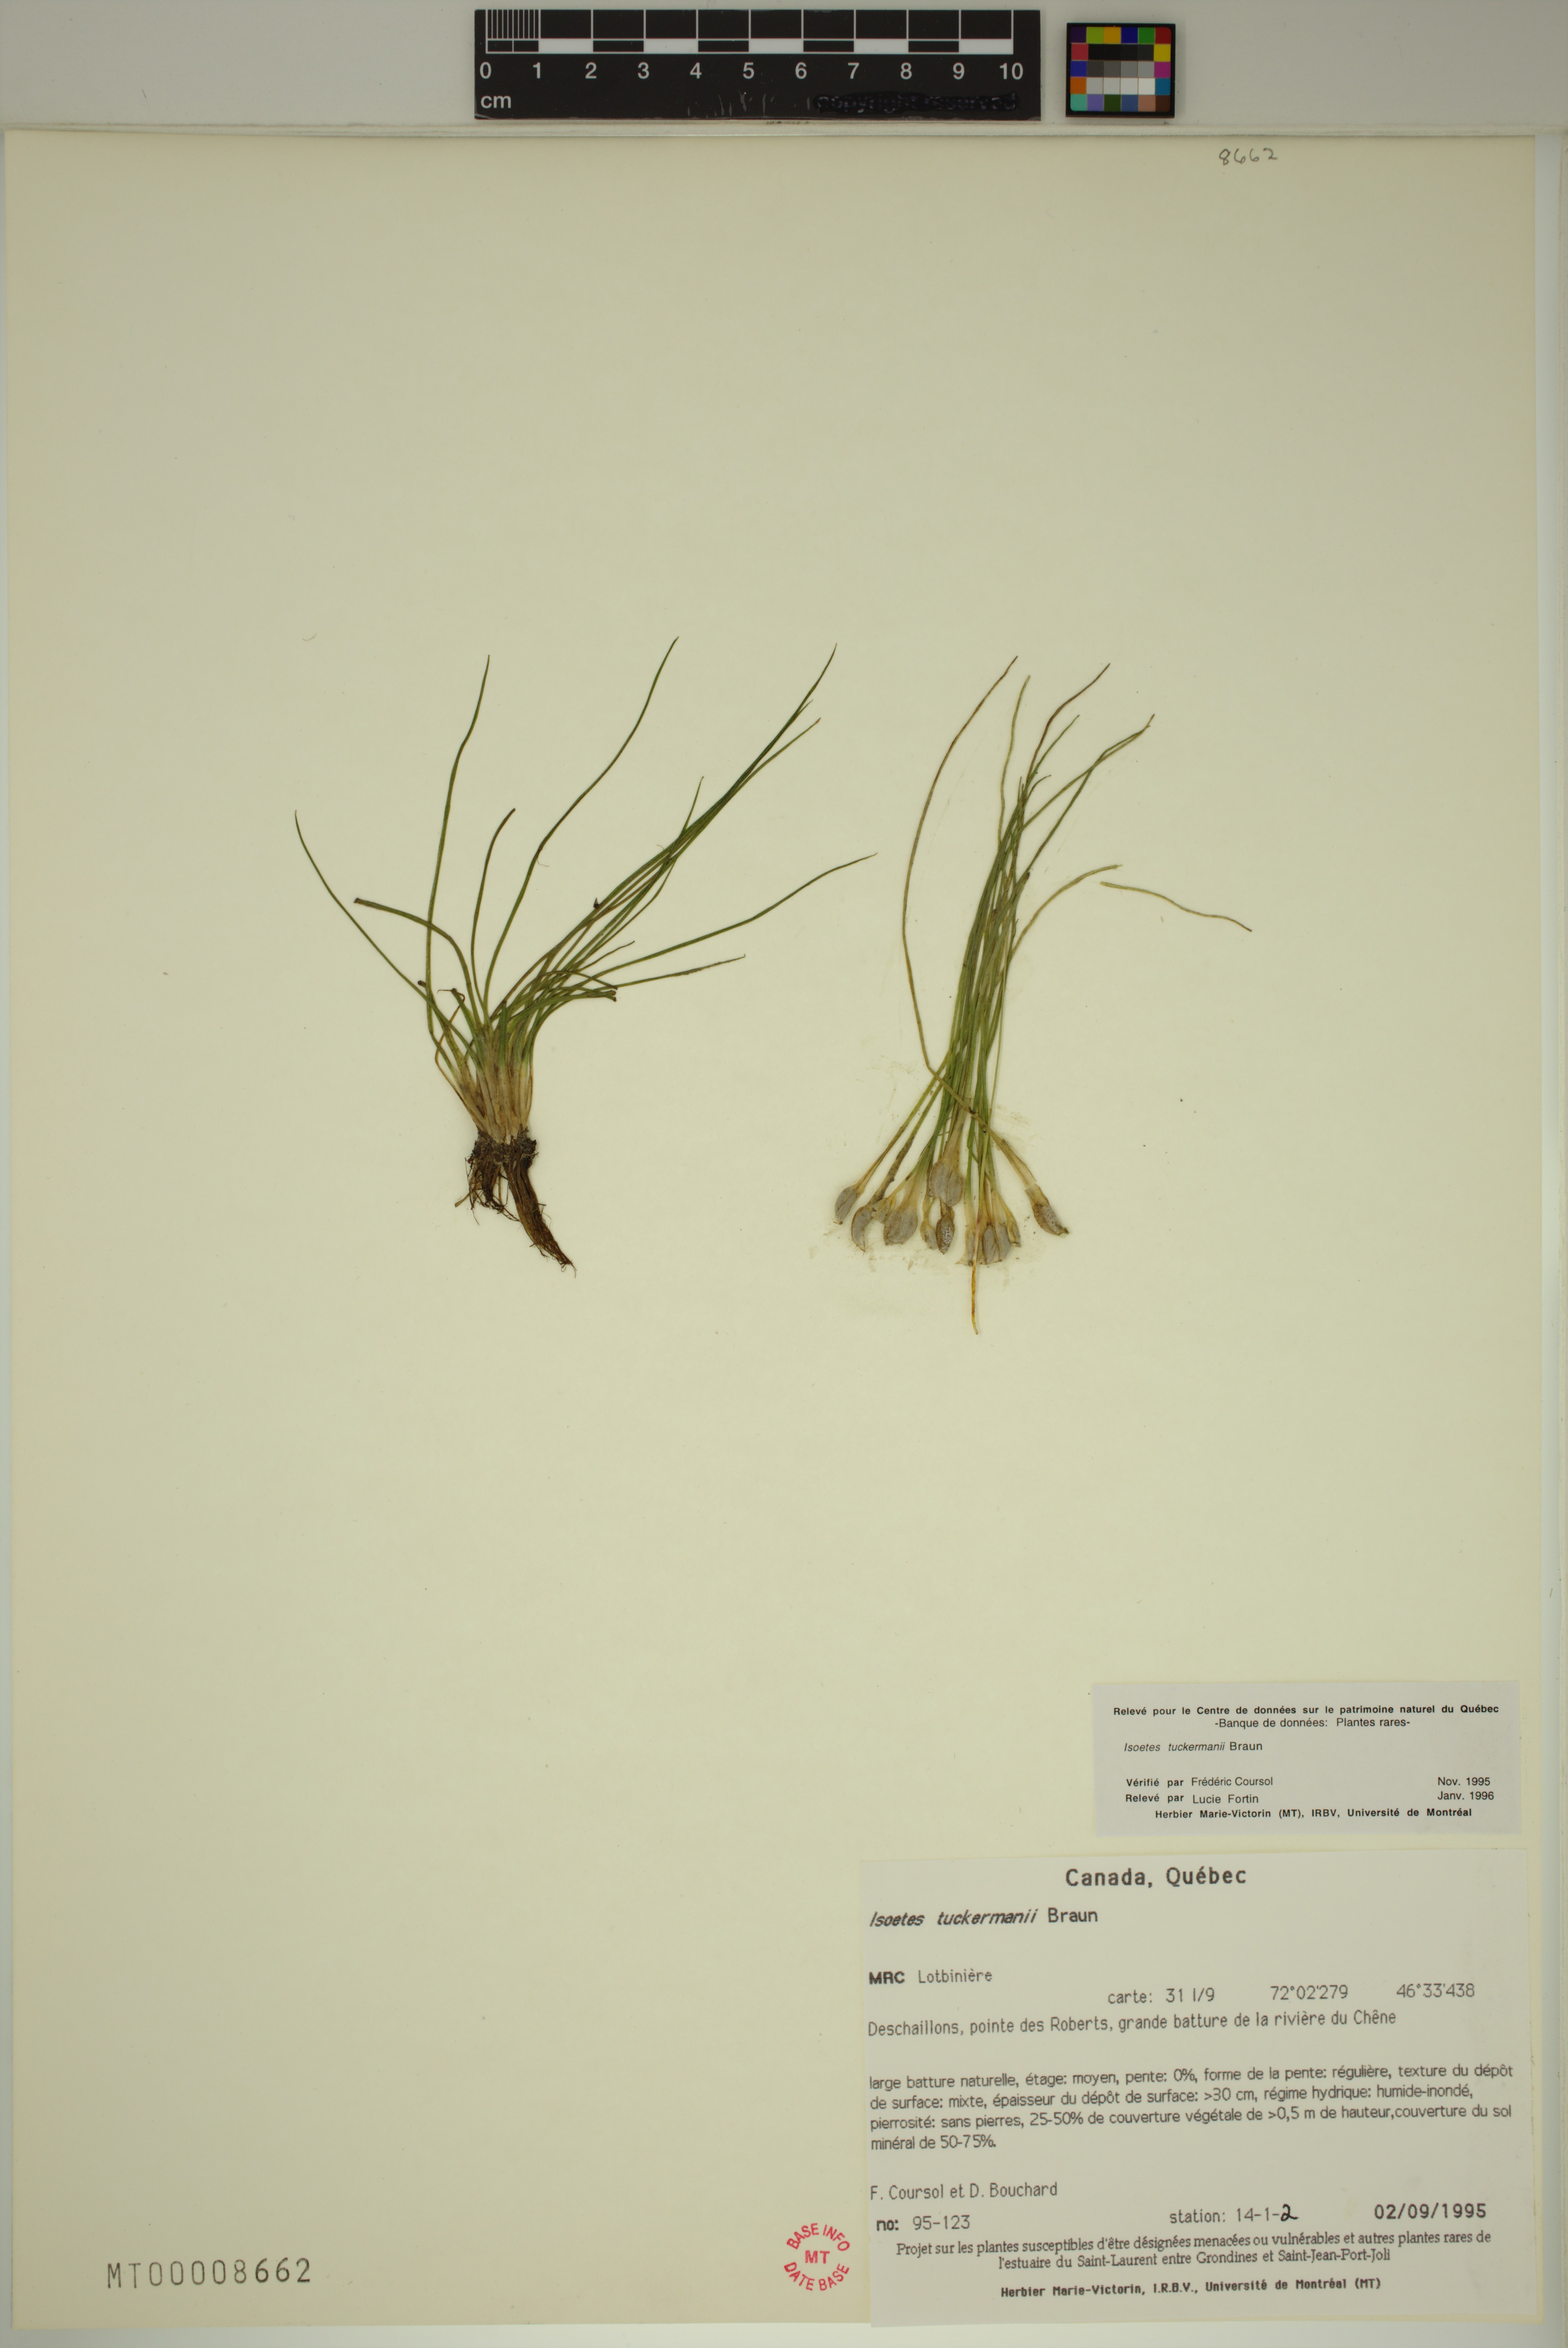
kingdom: Plantae
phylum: Tracheophyta
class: Lycopodiopsida
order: Isoetales
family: Isoetaceae
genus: Isoetes
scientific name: Isoetes laurentiana
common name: St. lawrence quillwort
